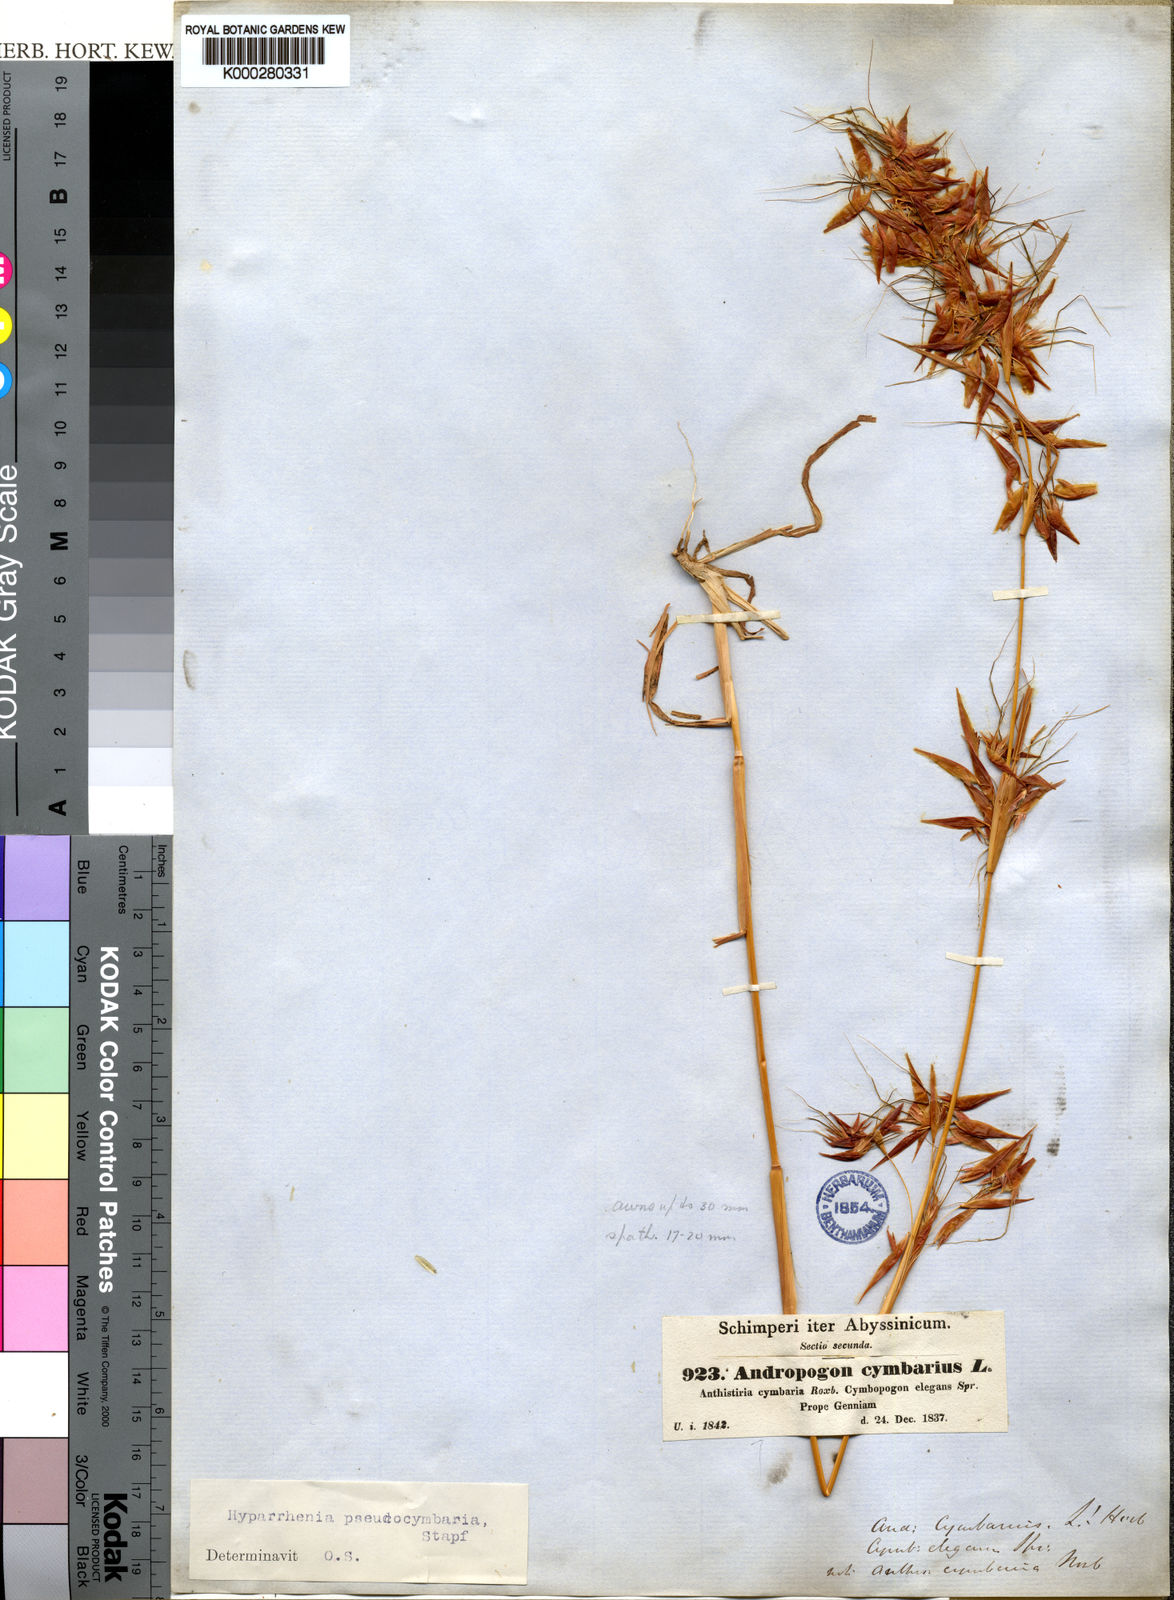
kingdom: Plantae
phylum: Tracheophyta
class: Liliopsida
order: Poales
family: Poaceae
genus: Hyparrhenia
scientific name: Hyparrhenia
